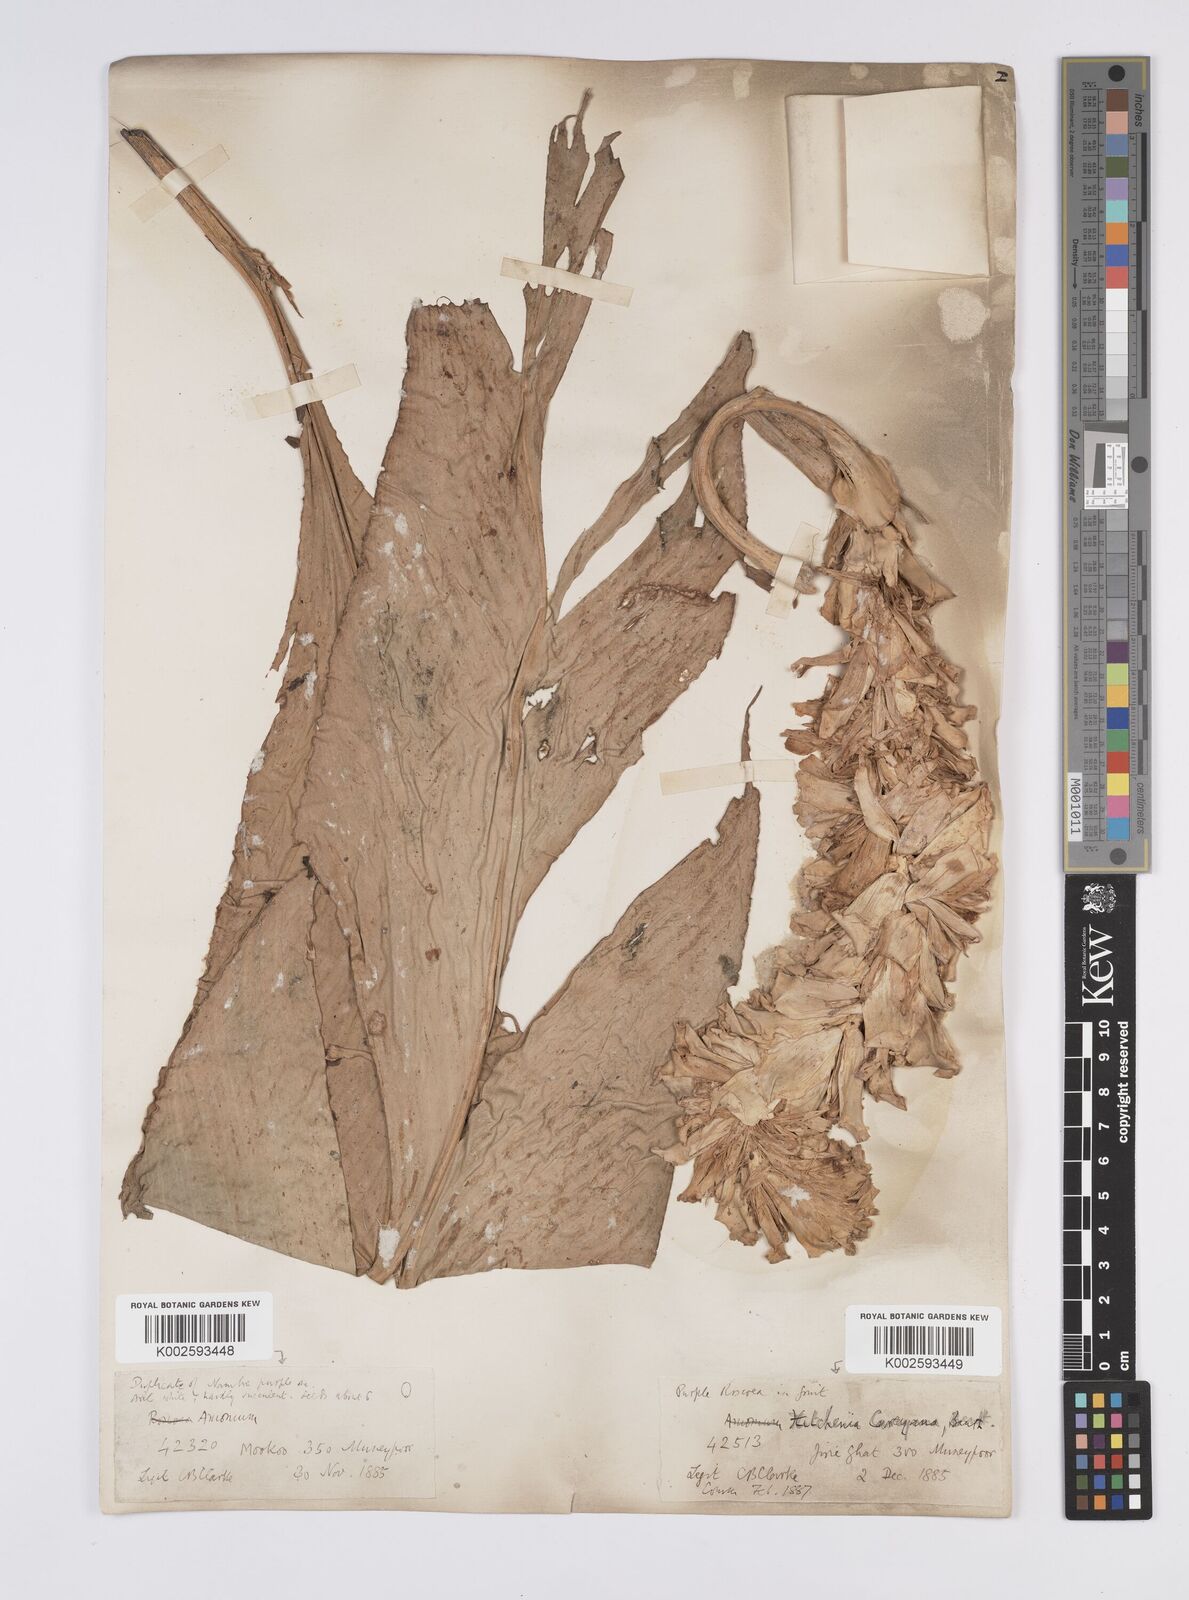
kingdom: Plantae
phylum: Tracheophyta
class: Liliopsida
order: Zingiberales
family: Zingiberaceae
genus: Larsenianthus
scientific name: Larsenianthus careyanus
